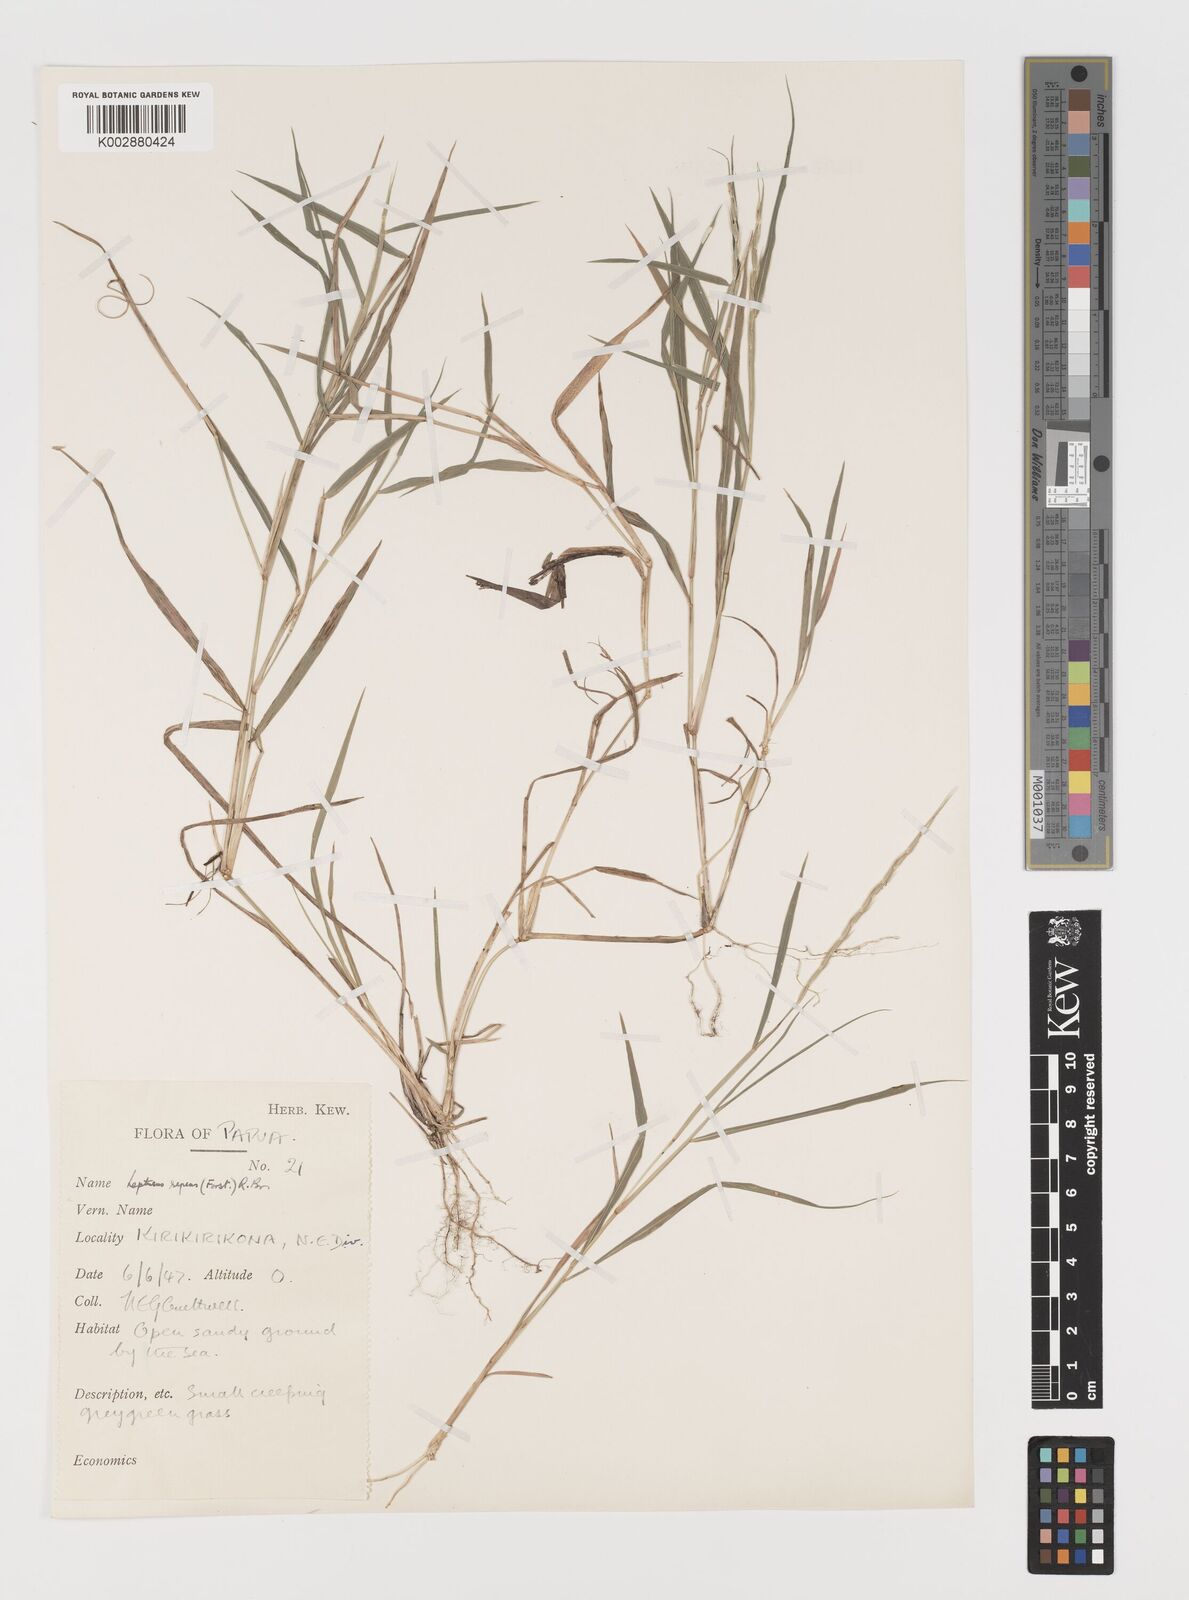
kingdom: Plantae
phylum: Tracheophyta
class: Liliopsida
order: Poales
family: Poaceae
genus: Lepturus
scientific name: Lepturus repens
